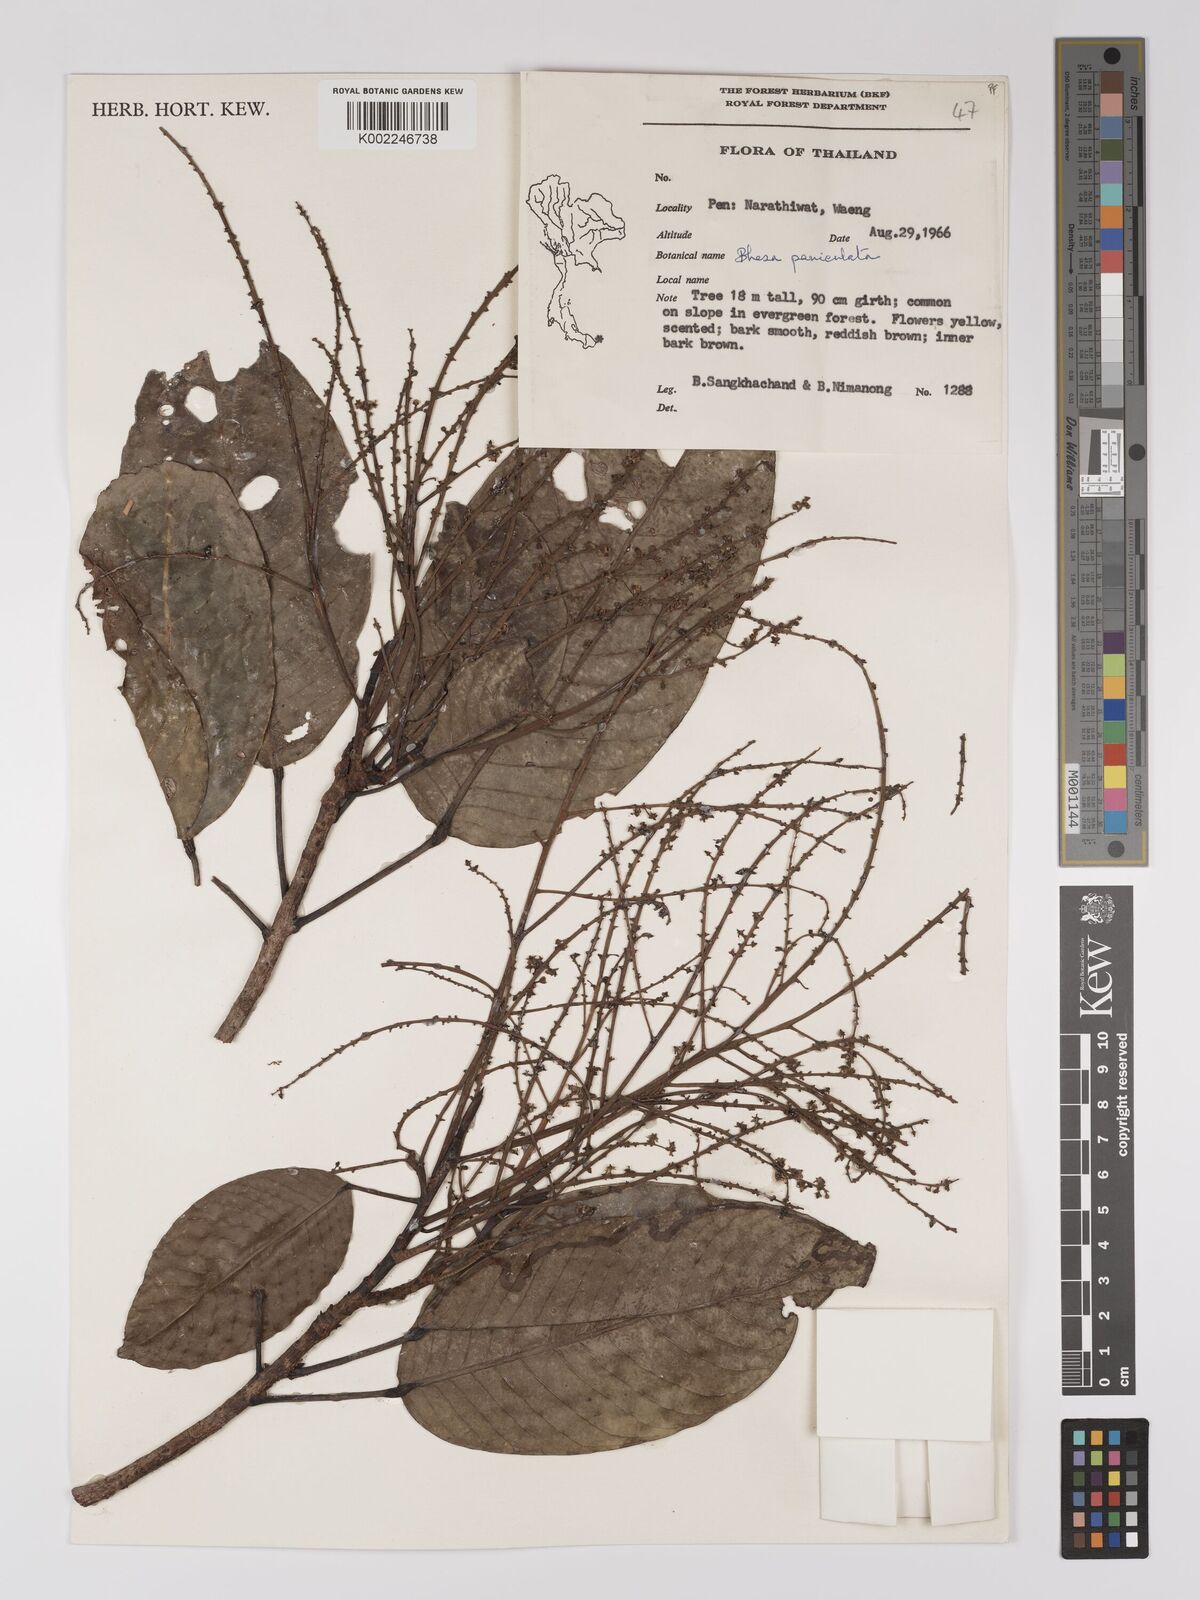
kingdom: Plantae
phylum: Tracheophyta
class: Magnoliopsida
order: Malpighiales
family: Centroplacaceae
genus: Bhesa
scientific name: Bhesa paniculata
